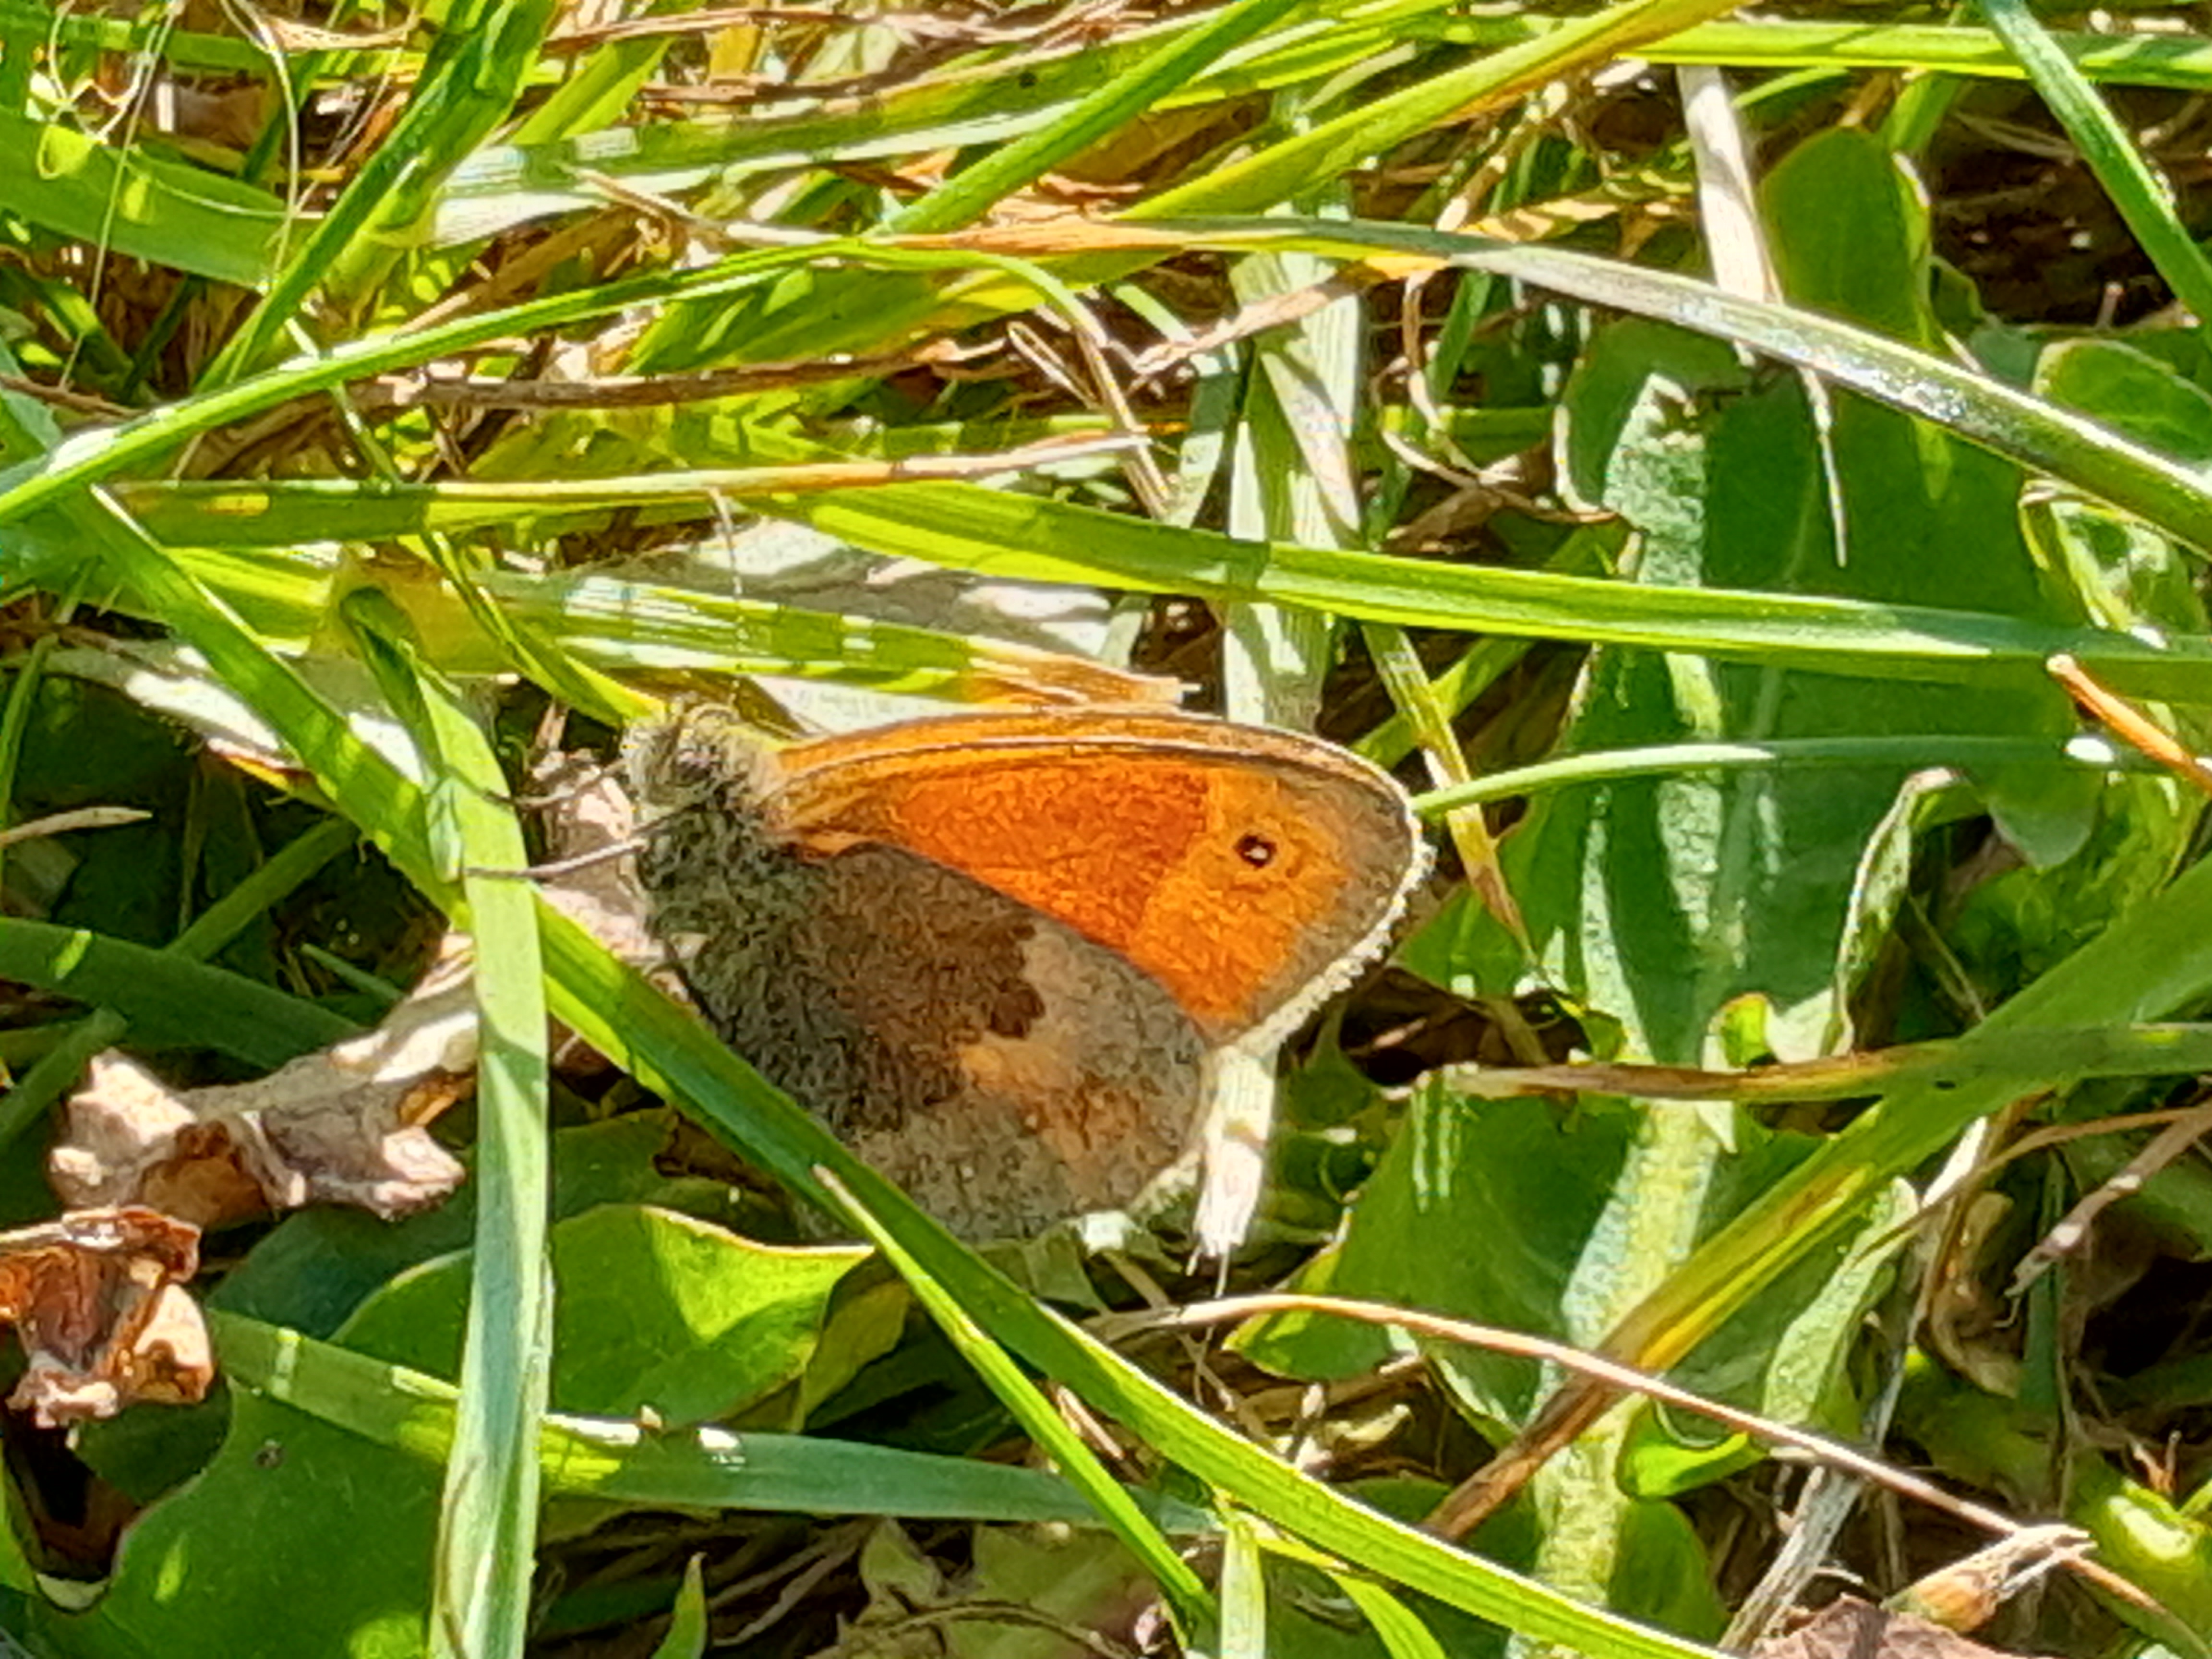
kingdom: Animalia
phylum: Arthropoda
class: Insecta
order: Lepidoptera
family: Nymphalidae
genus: Coenonympha
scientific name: Coenonympha pamphilus
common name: Okkergul randøje
